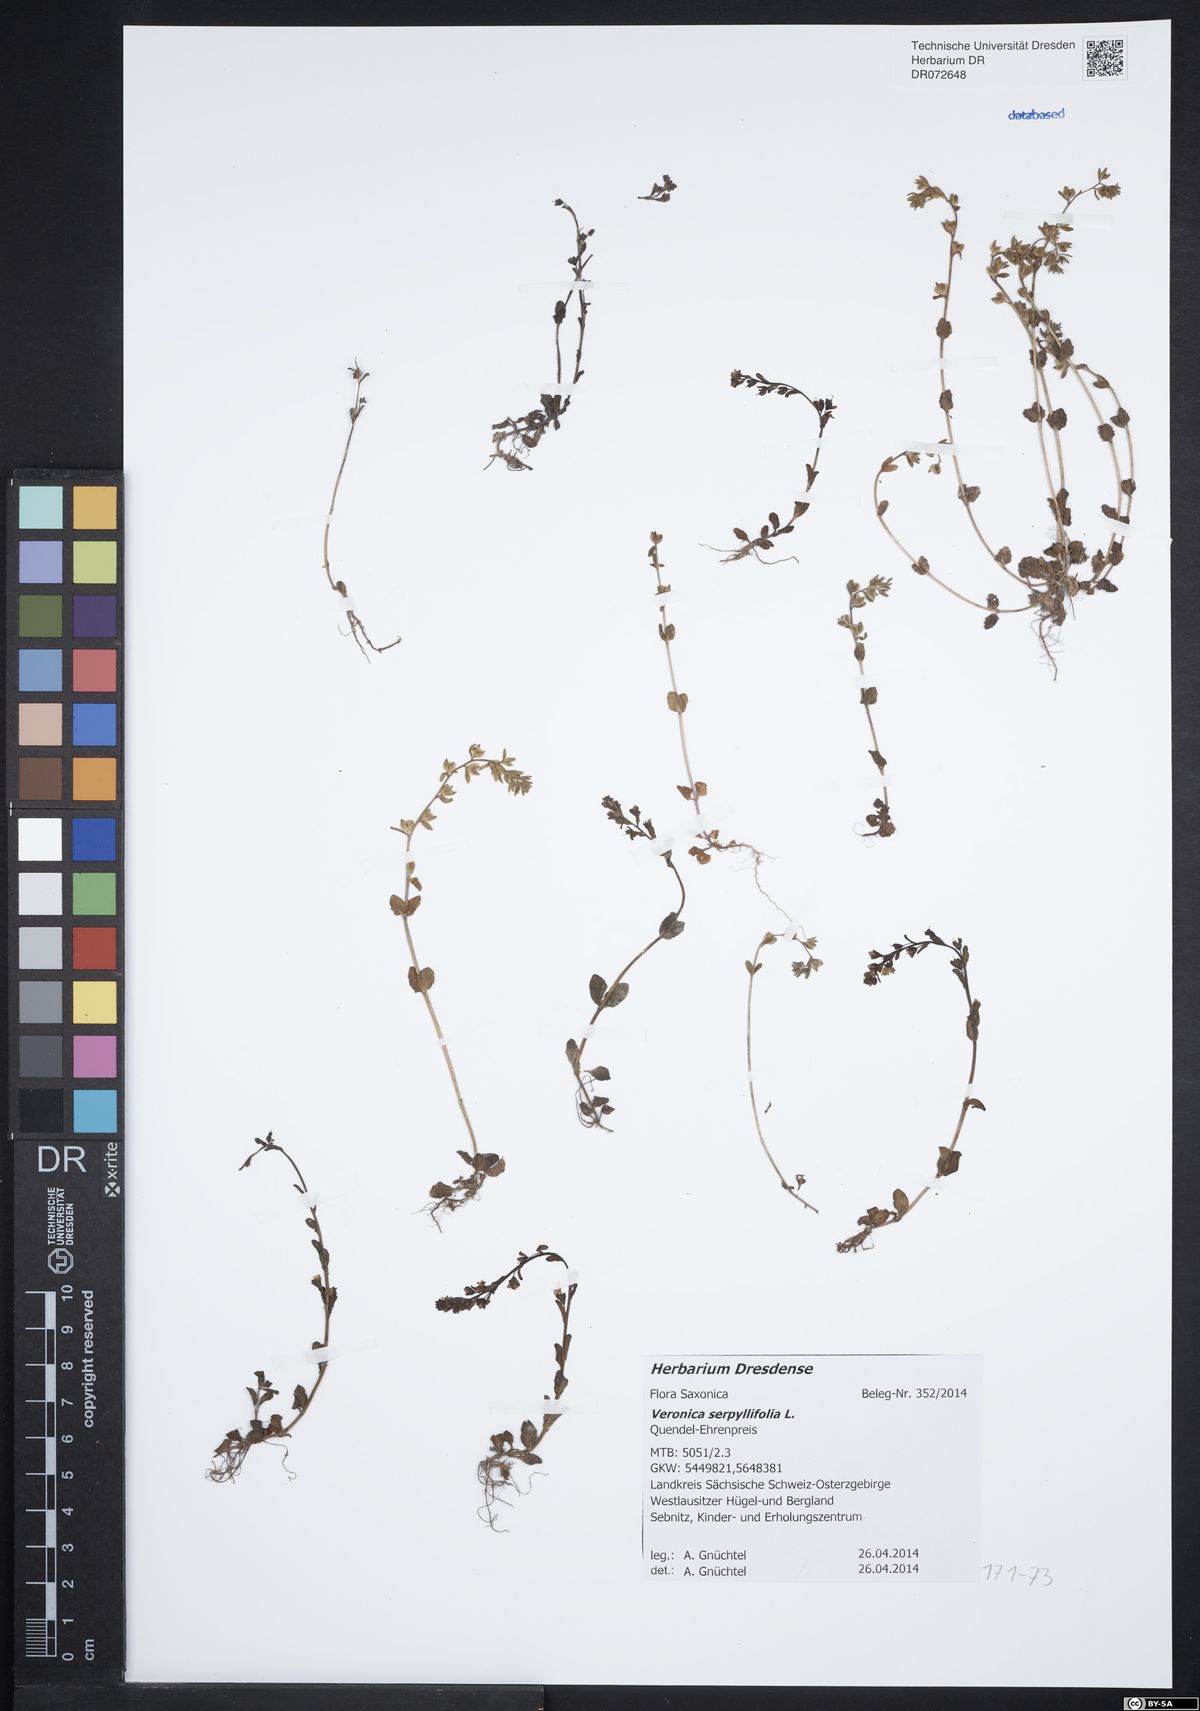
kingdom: Plantae
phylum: Tracheophyta
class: Magnoliopsida
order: Lamiales
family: Plantaginaceae
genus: Veronica
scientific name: Veronica serpyllifolia
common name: Thyme-leaved speedwell
